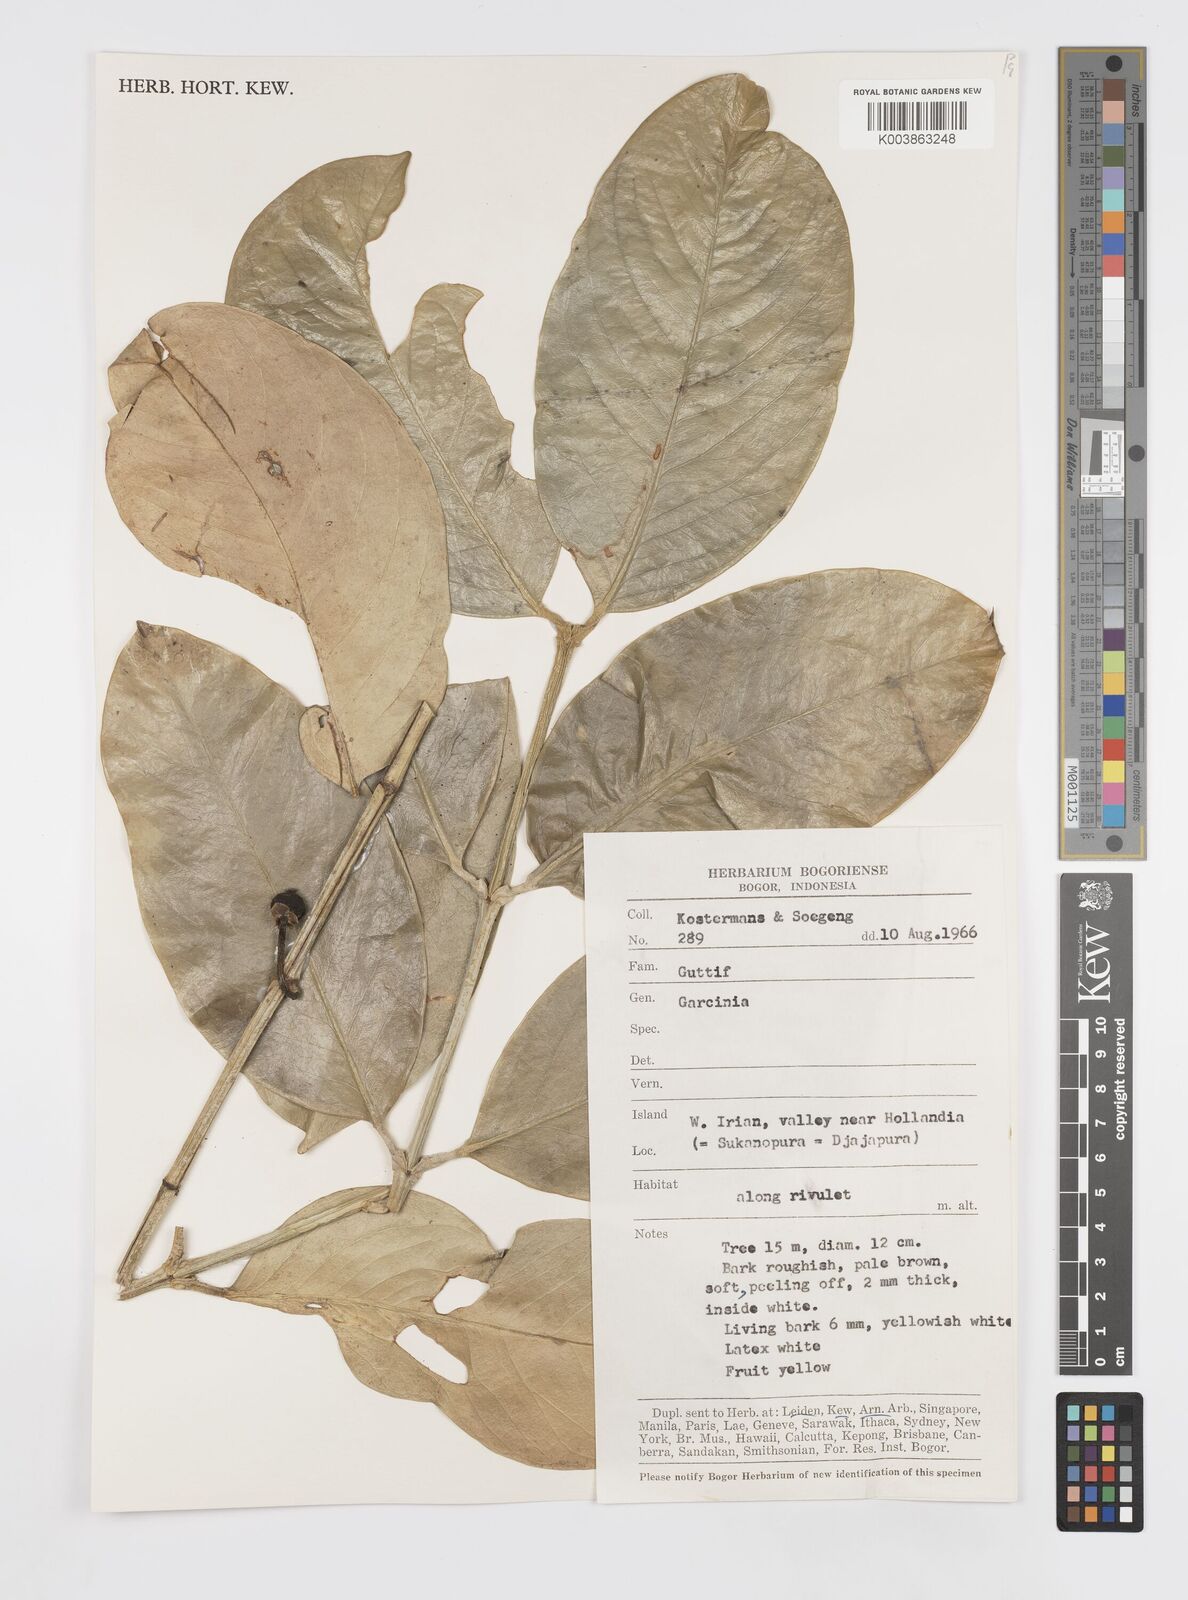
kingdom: Plantae
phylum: Tracheophyta
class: Magnoliopsida
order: Malpighiales
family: Clusiaceae
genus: Garcinia
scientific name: Garcinia
